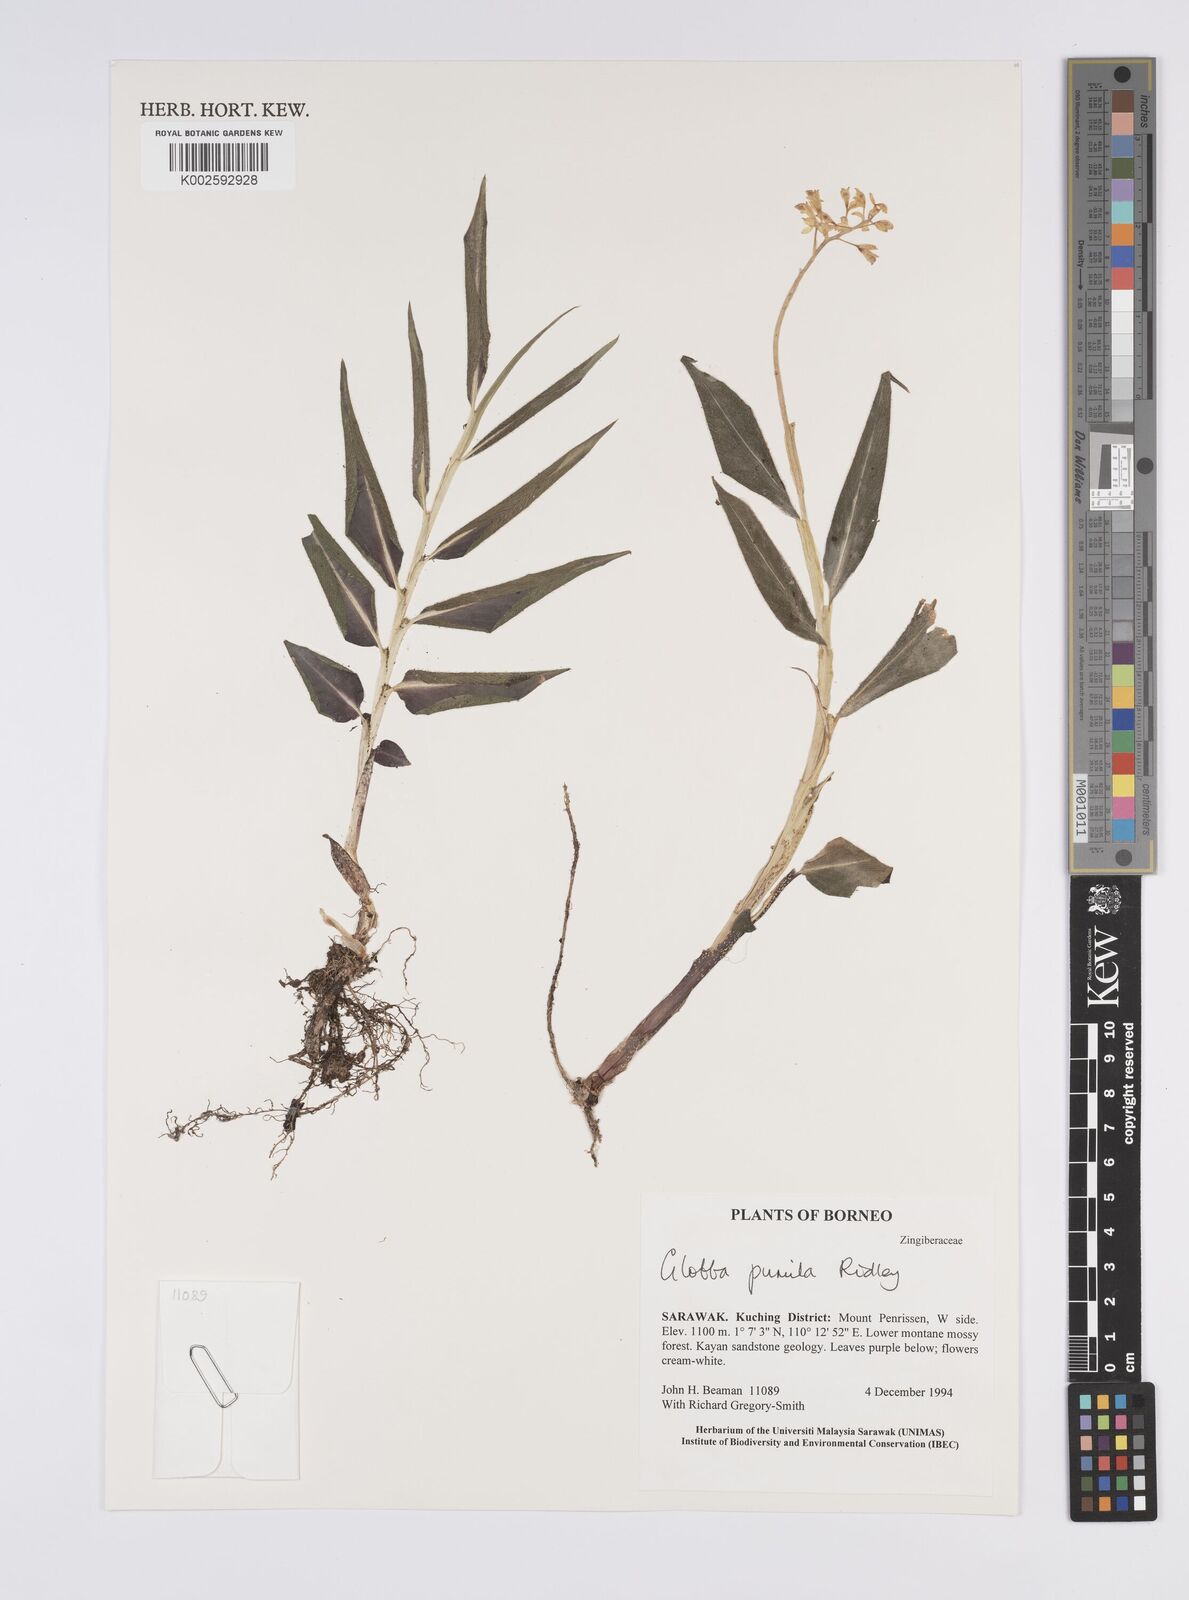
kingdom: Plantae
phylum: Tracheophyta
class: Liliopsida
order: Zingiberales
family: Zingiberaceae
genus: Globba
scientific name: Globba pumila
